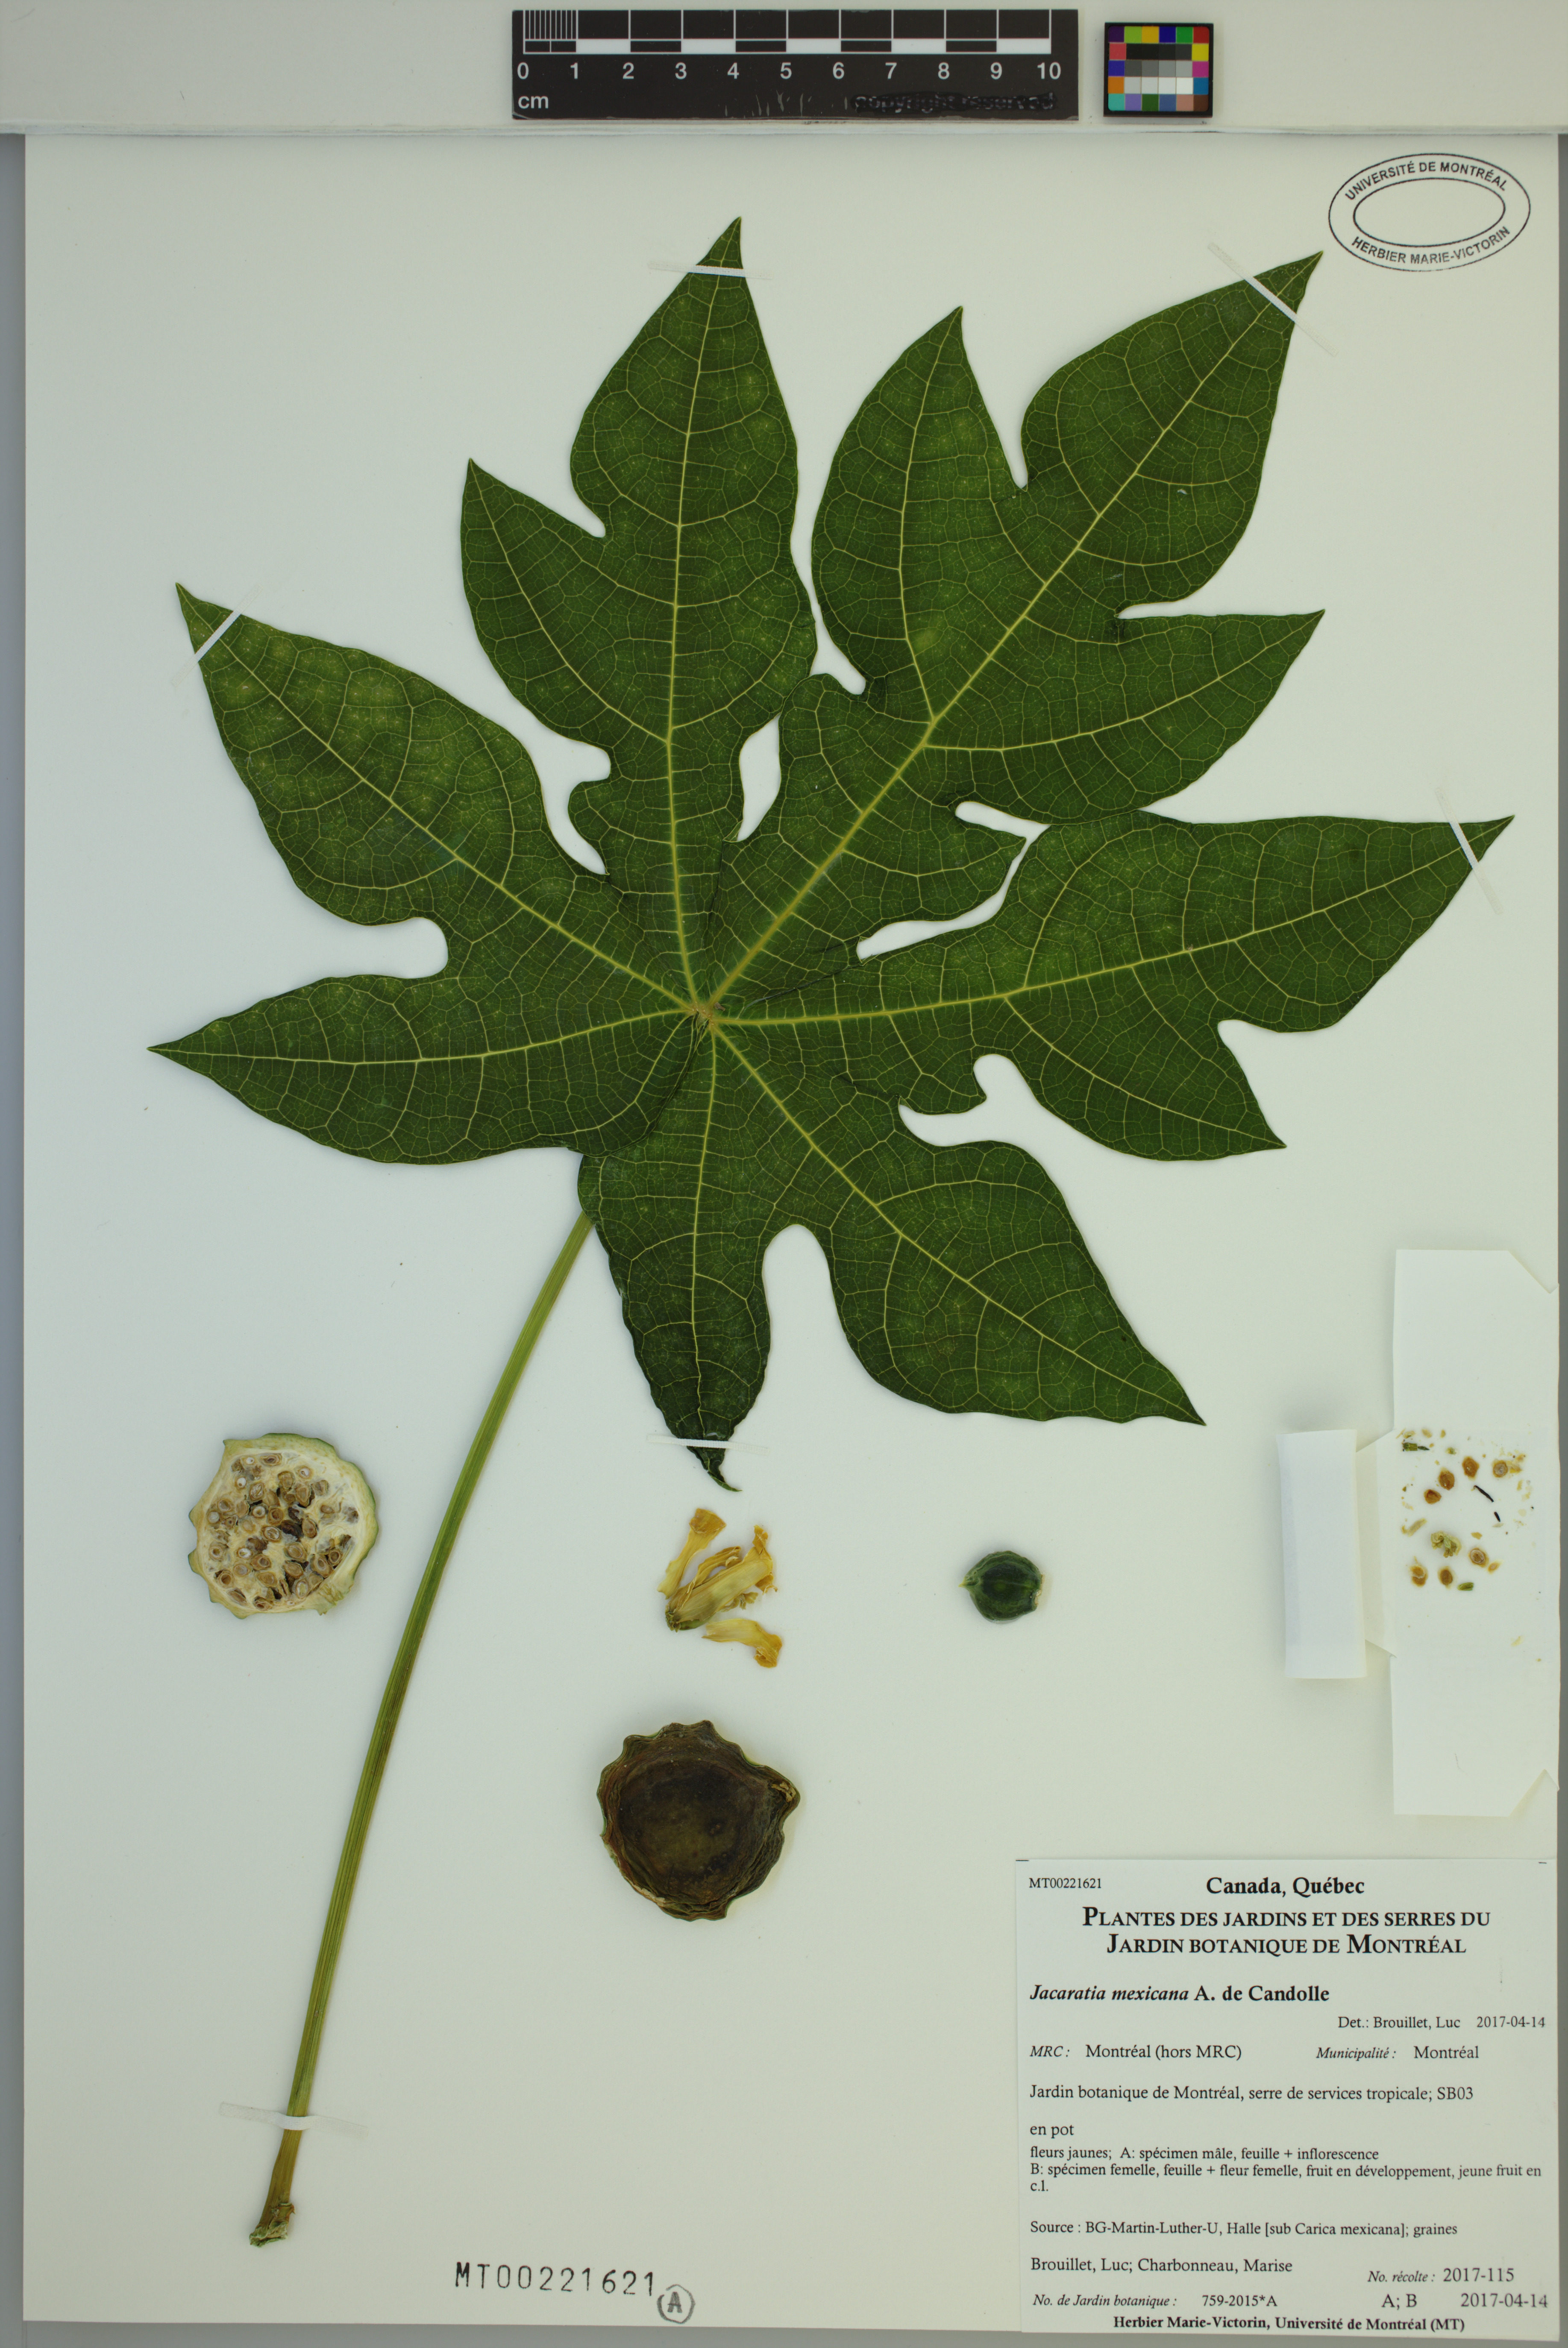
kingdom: Plantae
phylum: Tracheophyta
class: Magnoliopsida
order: Brassicales
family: Caricaceae
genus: Jacaratia
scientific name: Jacaratia mexicana
